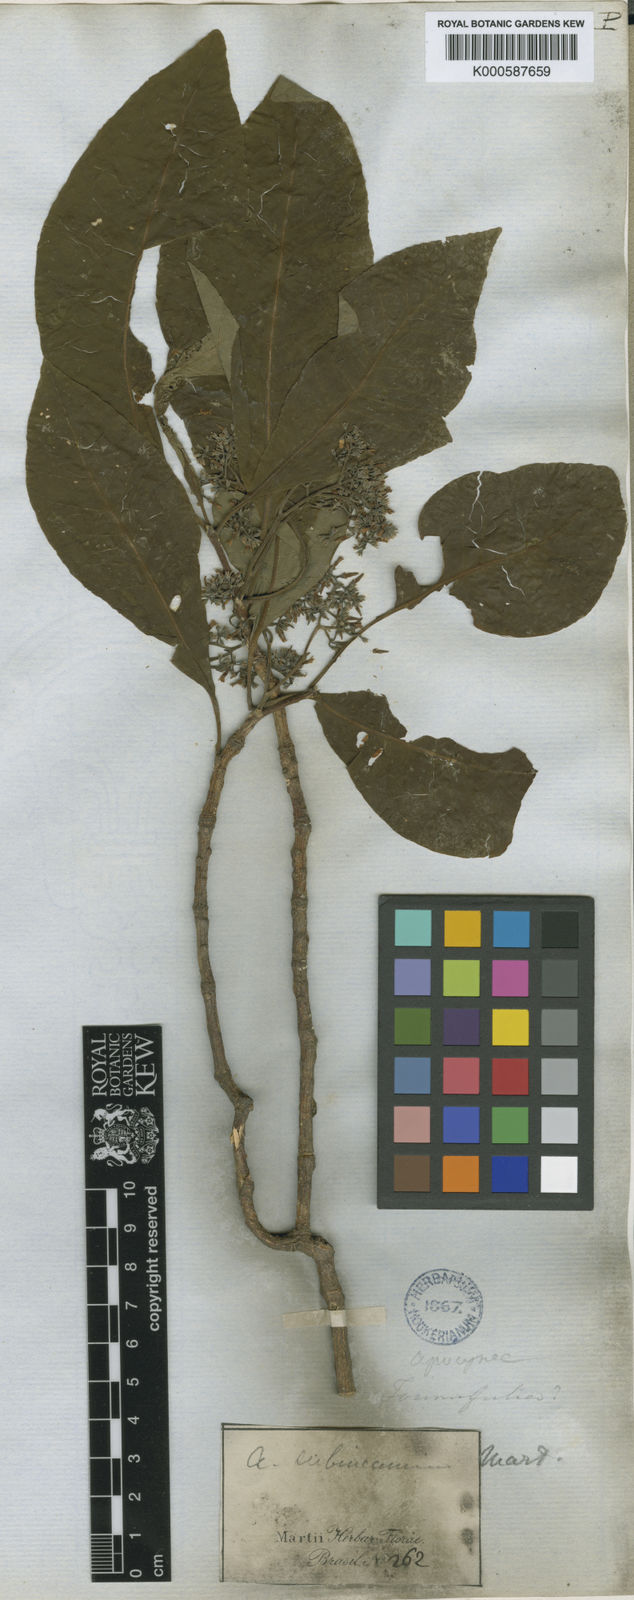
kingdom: Plantae
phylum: Tracheophyta
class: Magnoliopsida
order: Gentianales
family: Apocynaceae
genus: Aspidosperma
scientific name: Aspidosperma
